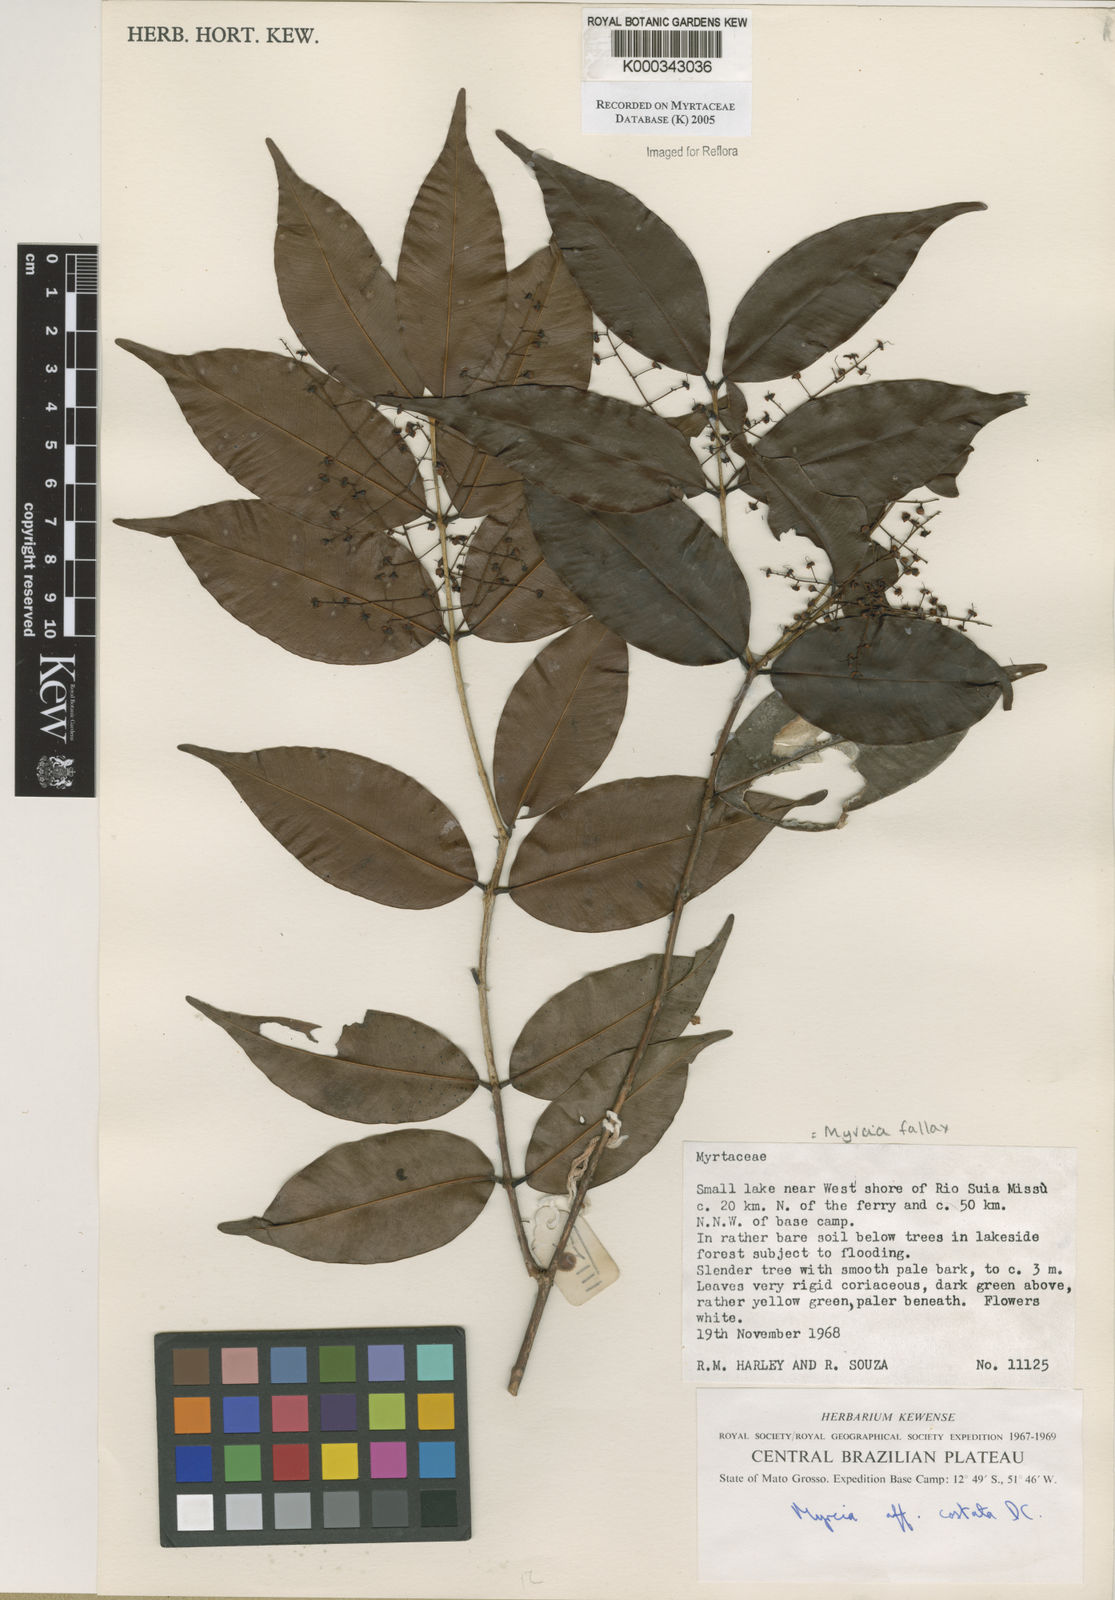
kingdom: Plantae
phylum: Tracheophyta
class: Magnoliopsida
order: Myrtales
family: Myrtaceae
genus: Myrcia
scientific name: Myrcia splendens
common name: Surinam cherry
